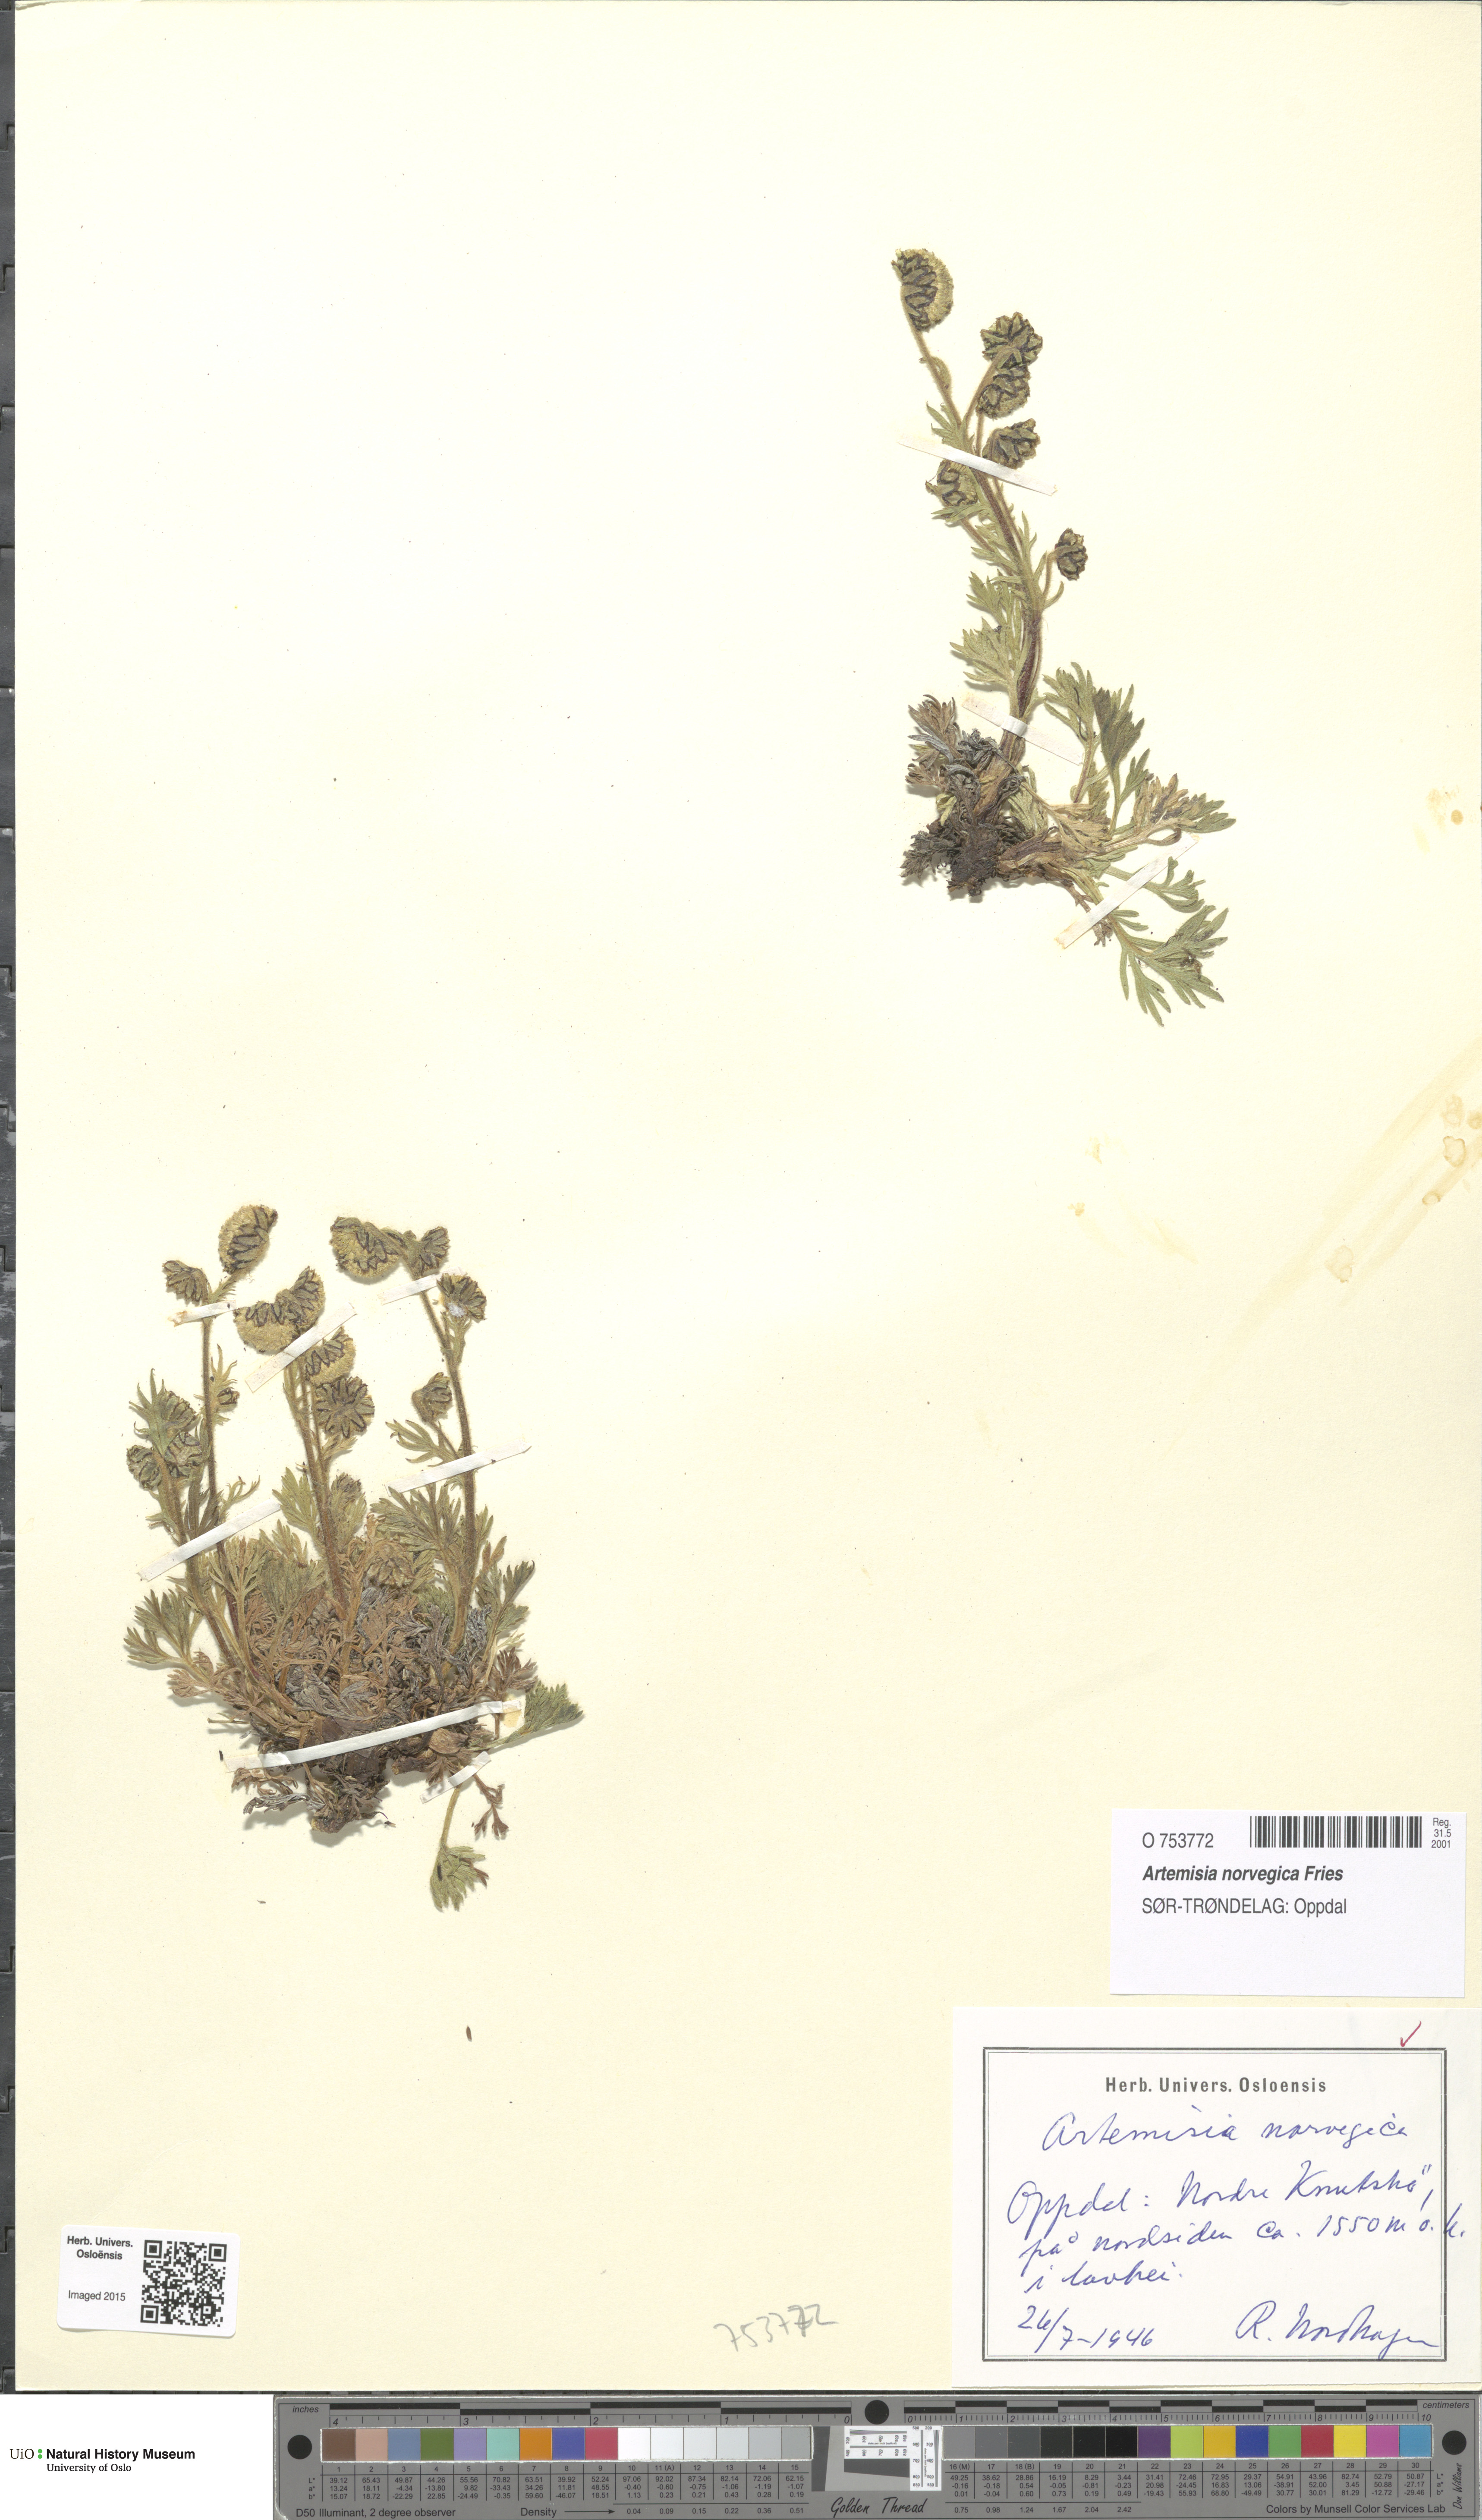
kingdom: Plantae
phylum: Tracheophyta
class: Magnoliopsida
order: Asterales
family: Asteraceae
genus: Artemisia
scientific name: Artemisia norvegica
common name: Norwegian mugwort
